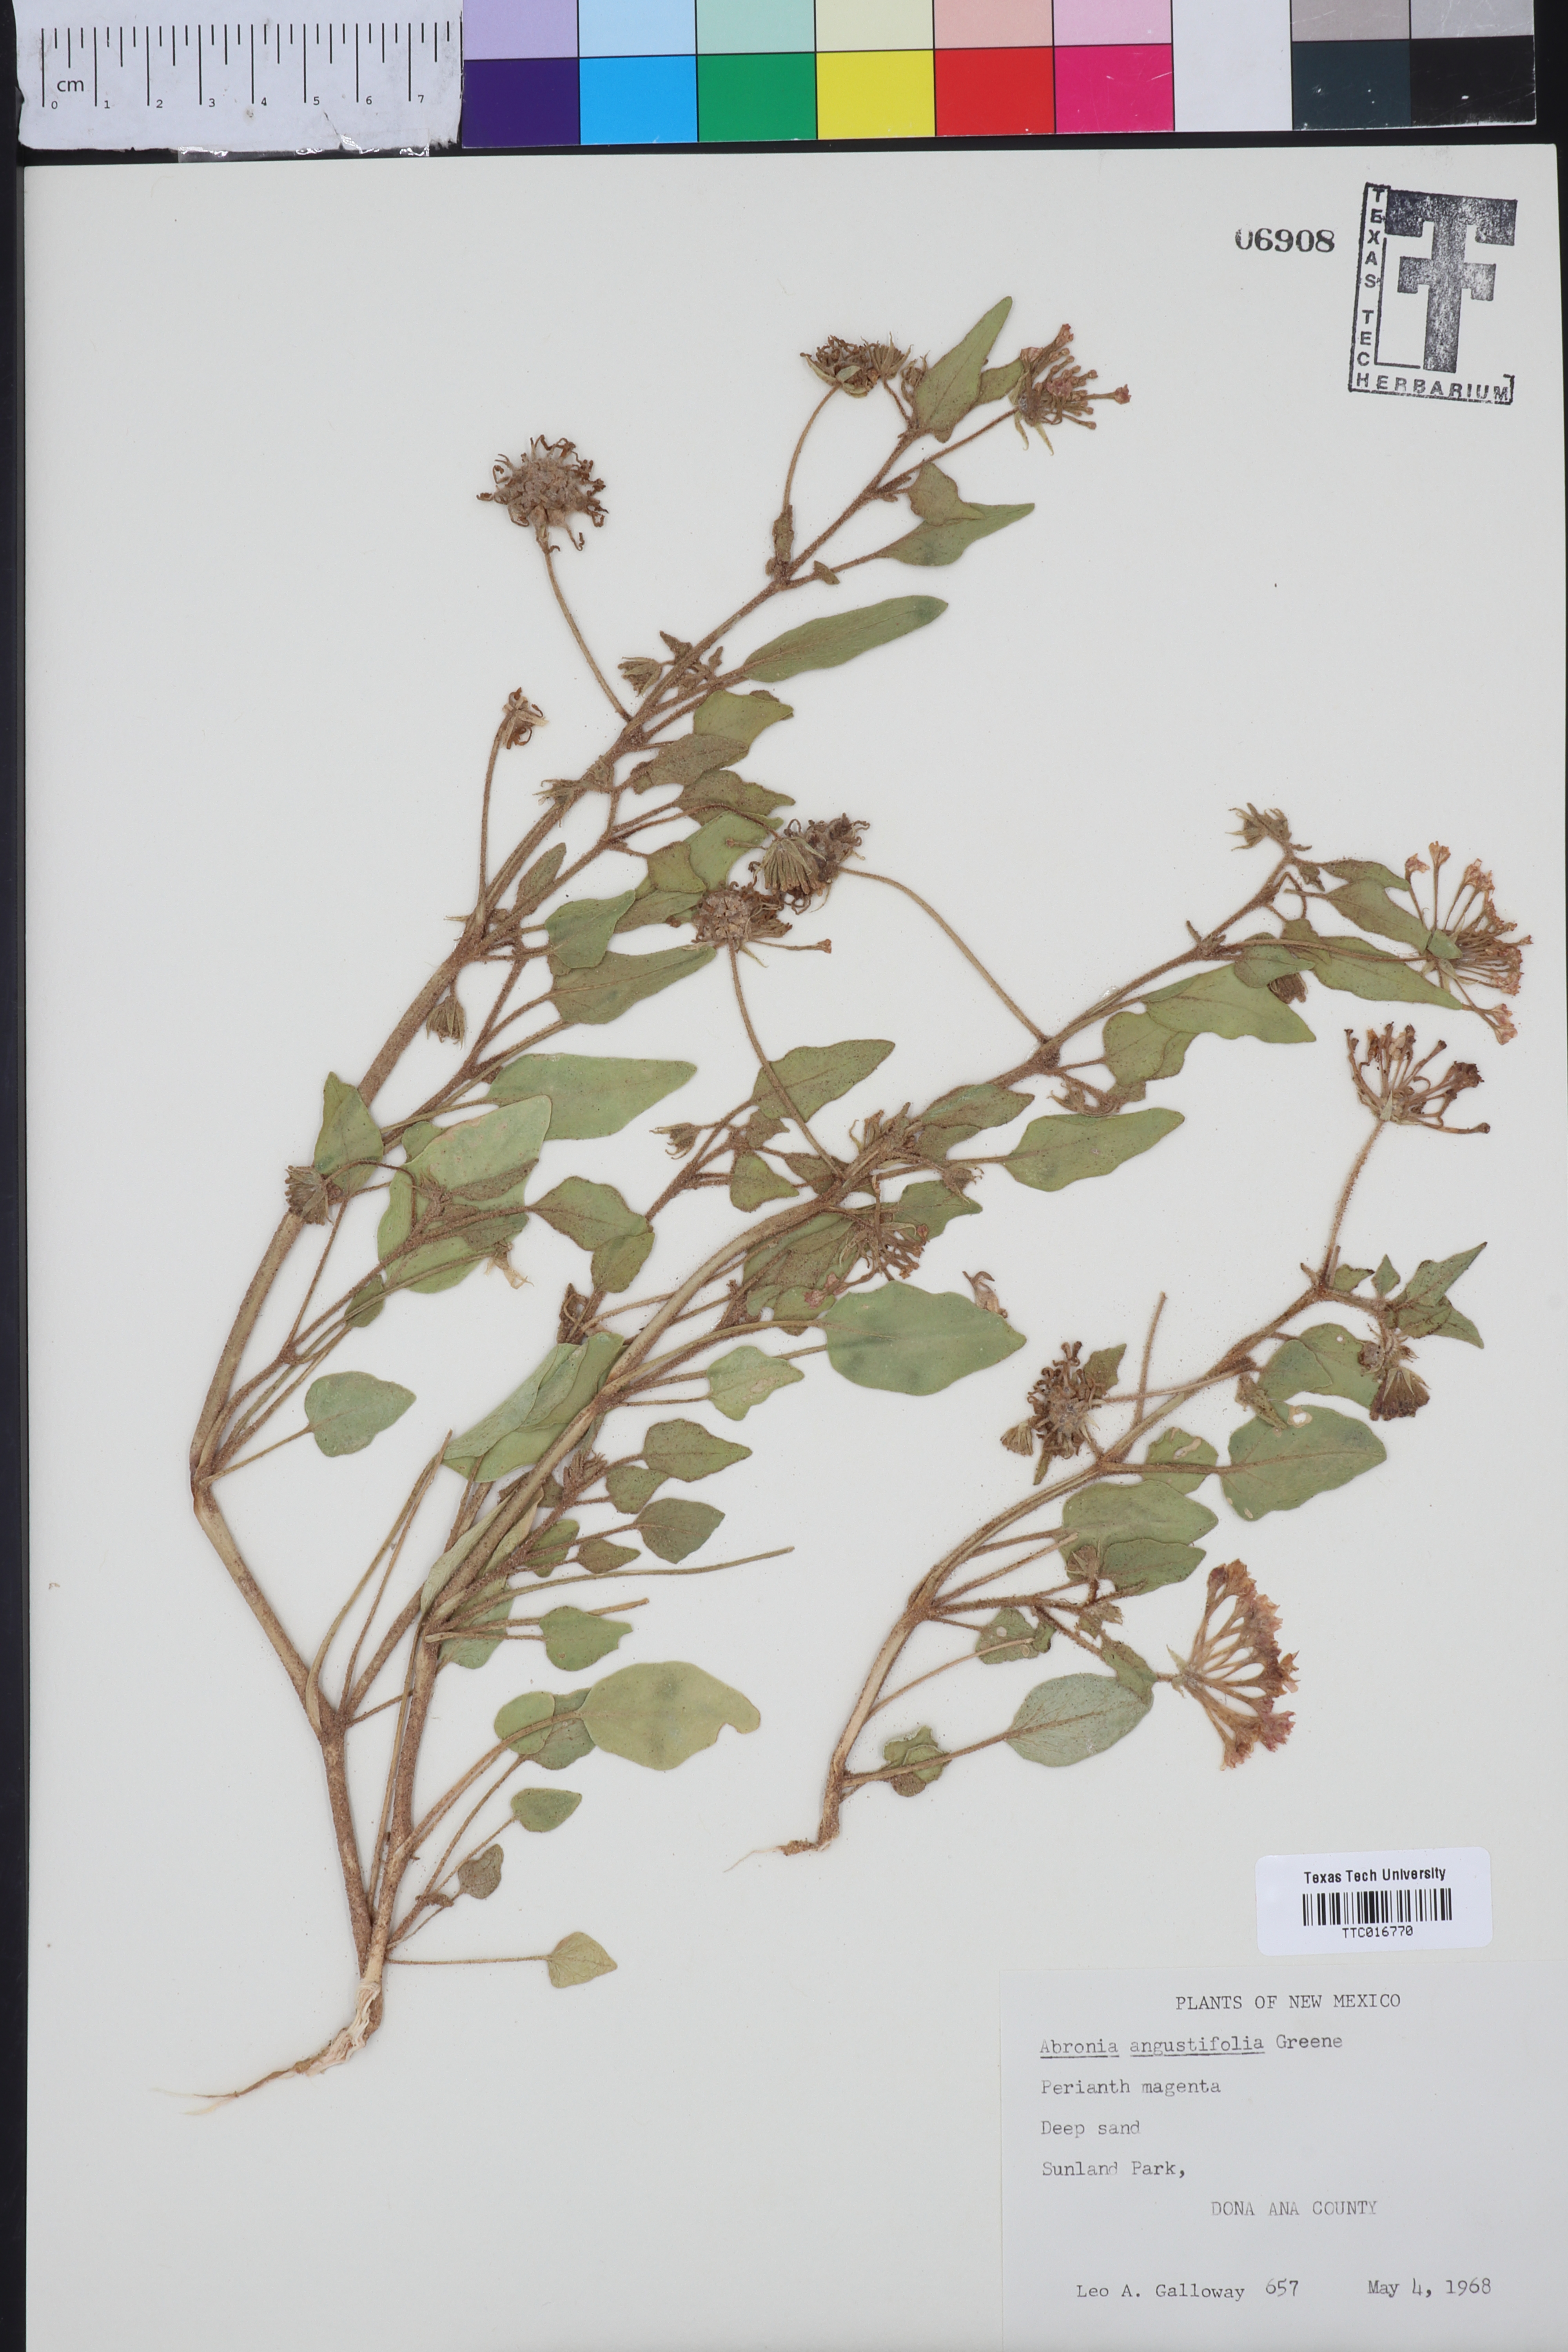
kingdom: Plantae
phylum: Tracheophyta
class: Magnoliopsida
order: Caryophyllales
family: Nyctaginaceae
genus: Abronia
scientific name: Abronia angustifolia
